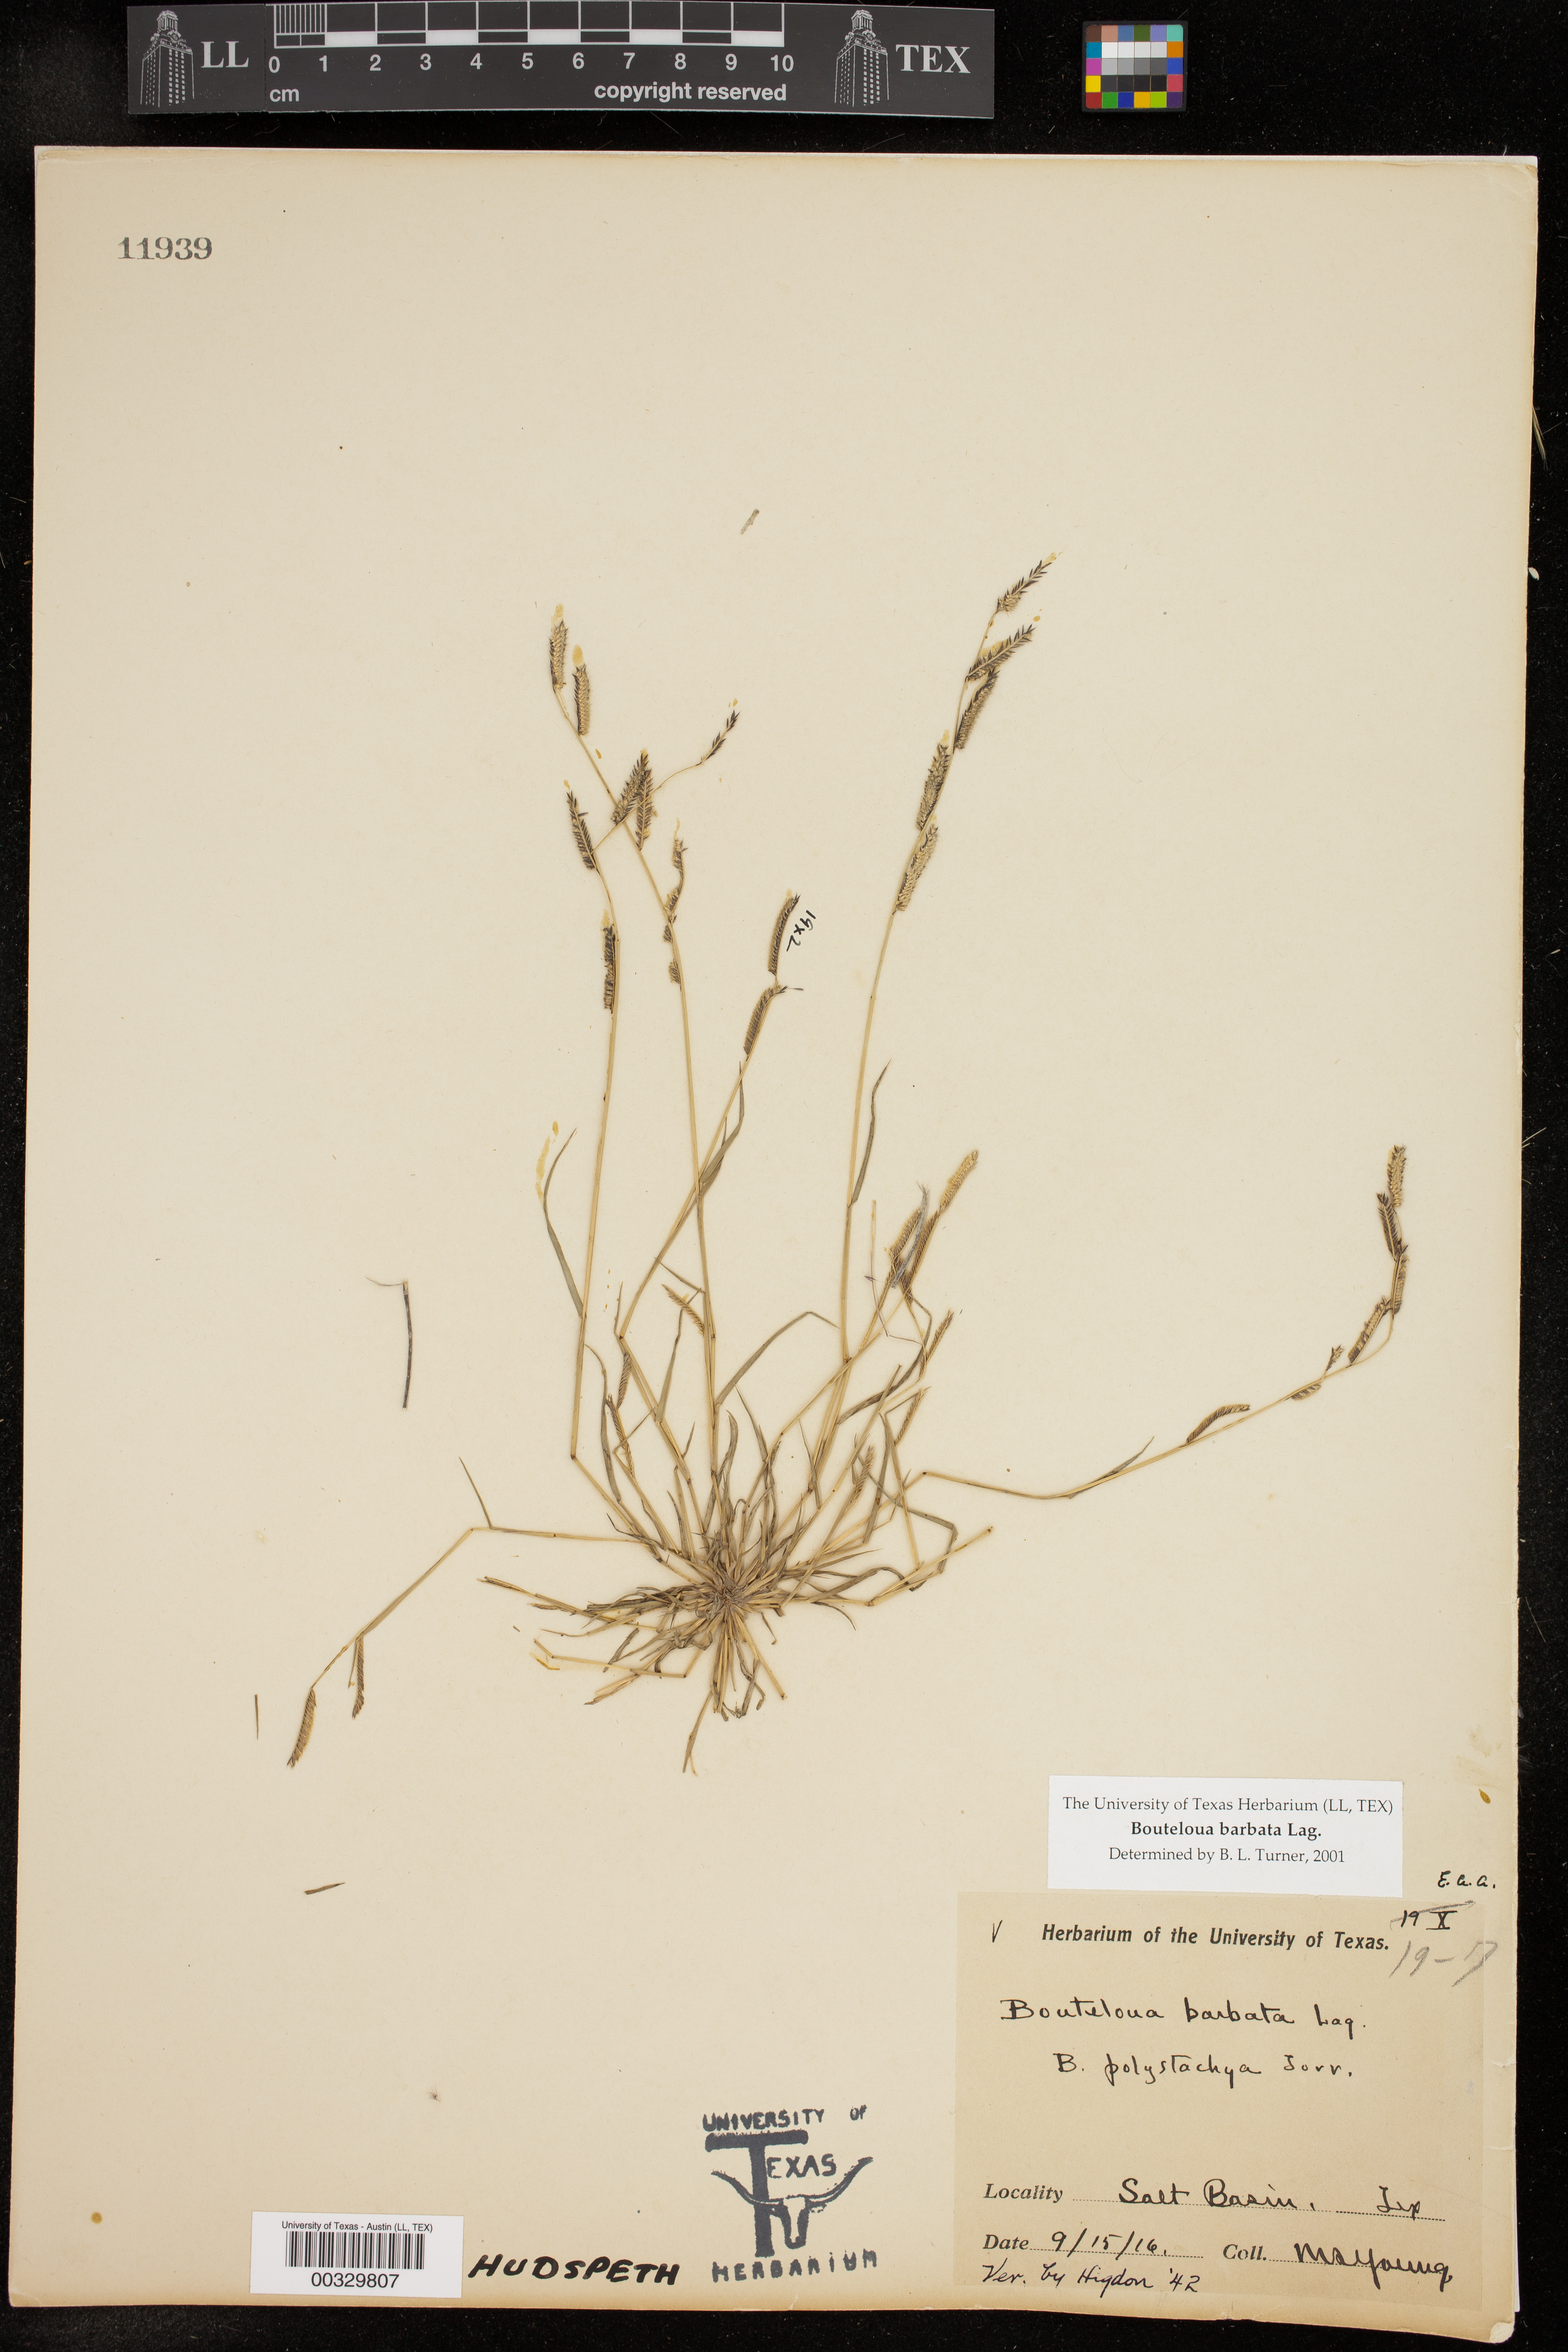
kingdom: Plantae
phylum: Tracheophyta
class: Liliopsida
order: Poales
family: Poaceae
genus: Bouteloua
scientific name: Bouteloua barbata
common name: Six-weeks grama
